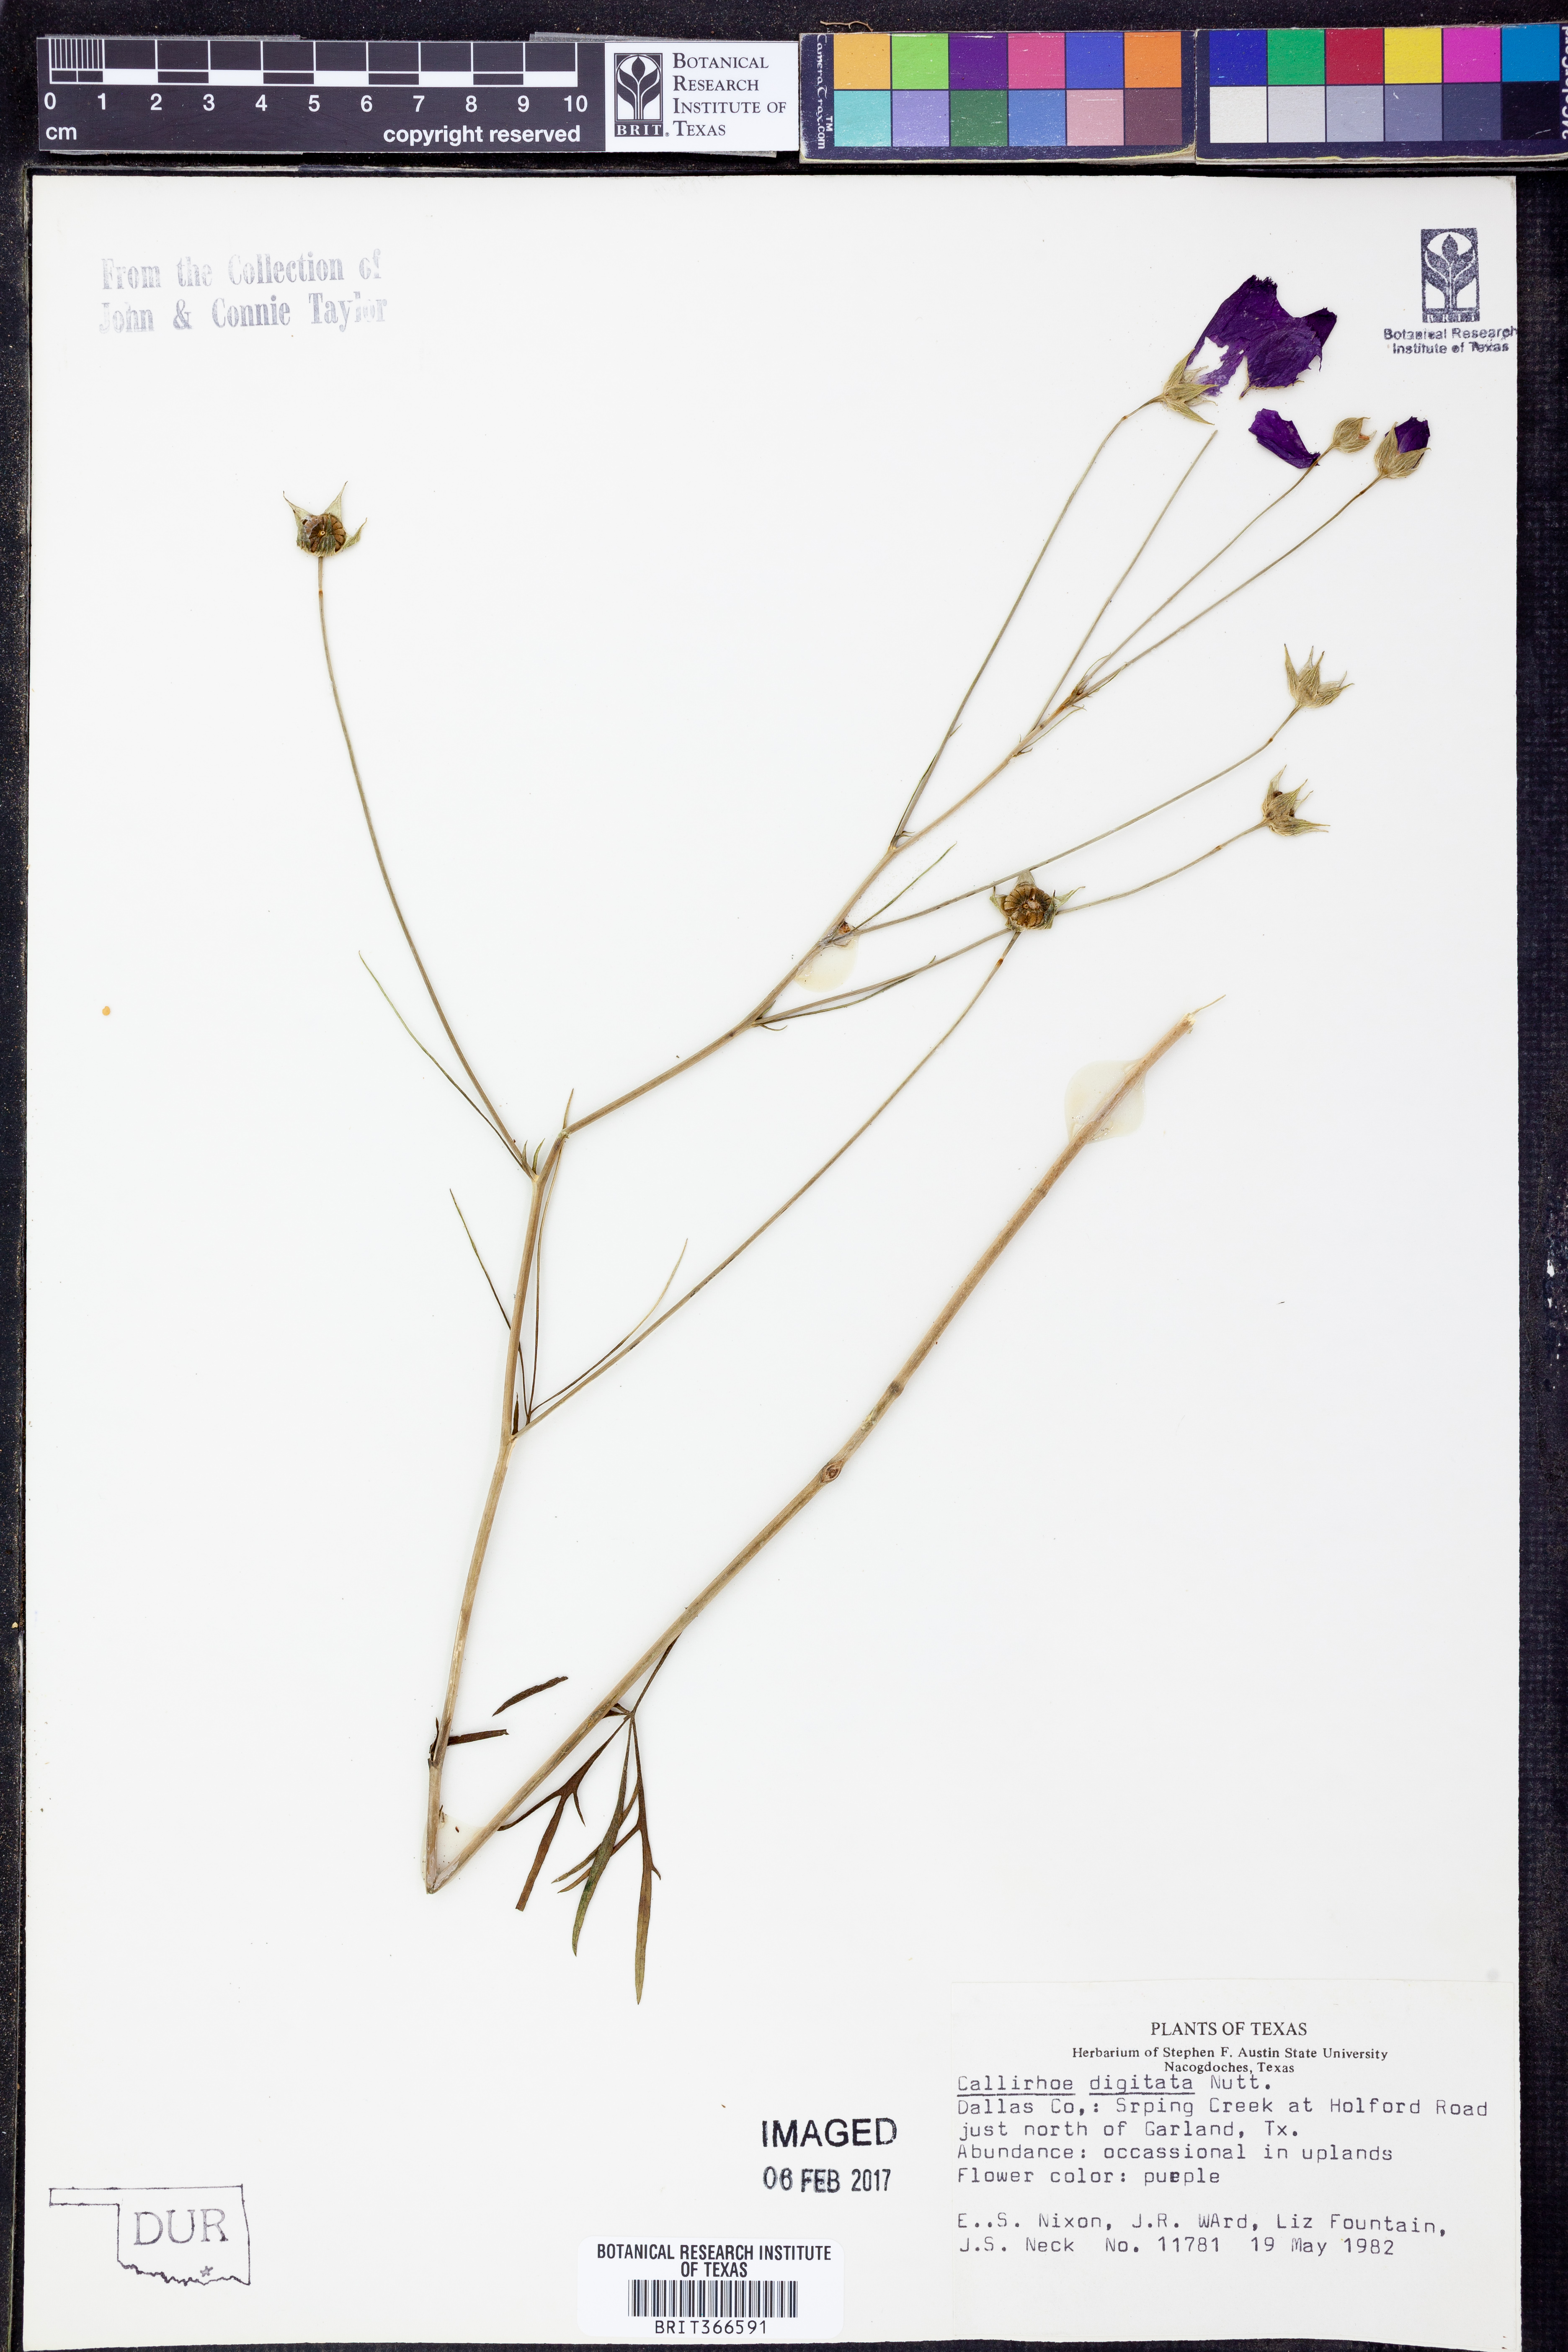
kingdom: Plantae
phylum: Tracheophyta
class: Magnoliopsida
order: Malvales
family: Malvaceae
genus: Callirhoe
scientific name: Callirhoe digitata
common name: Finger poppy-mallow
